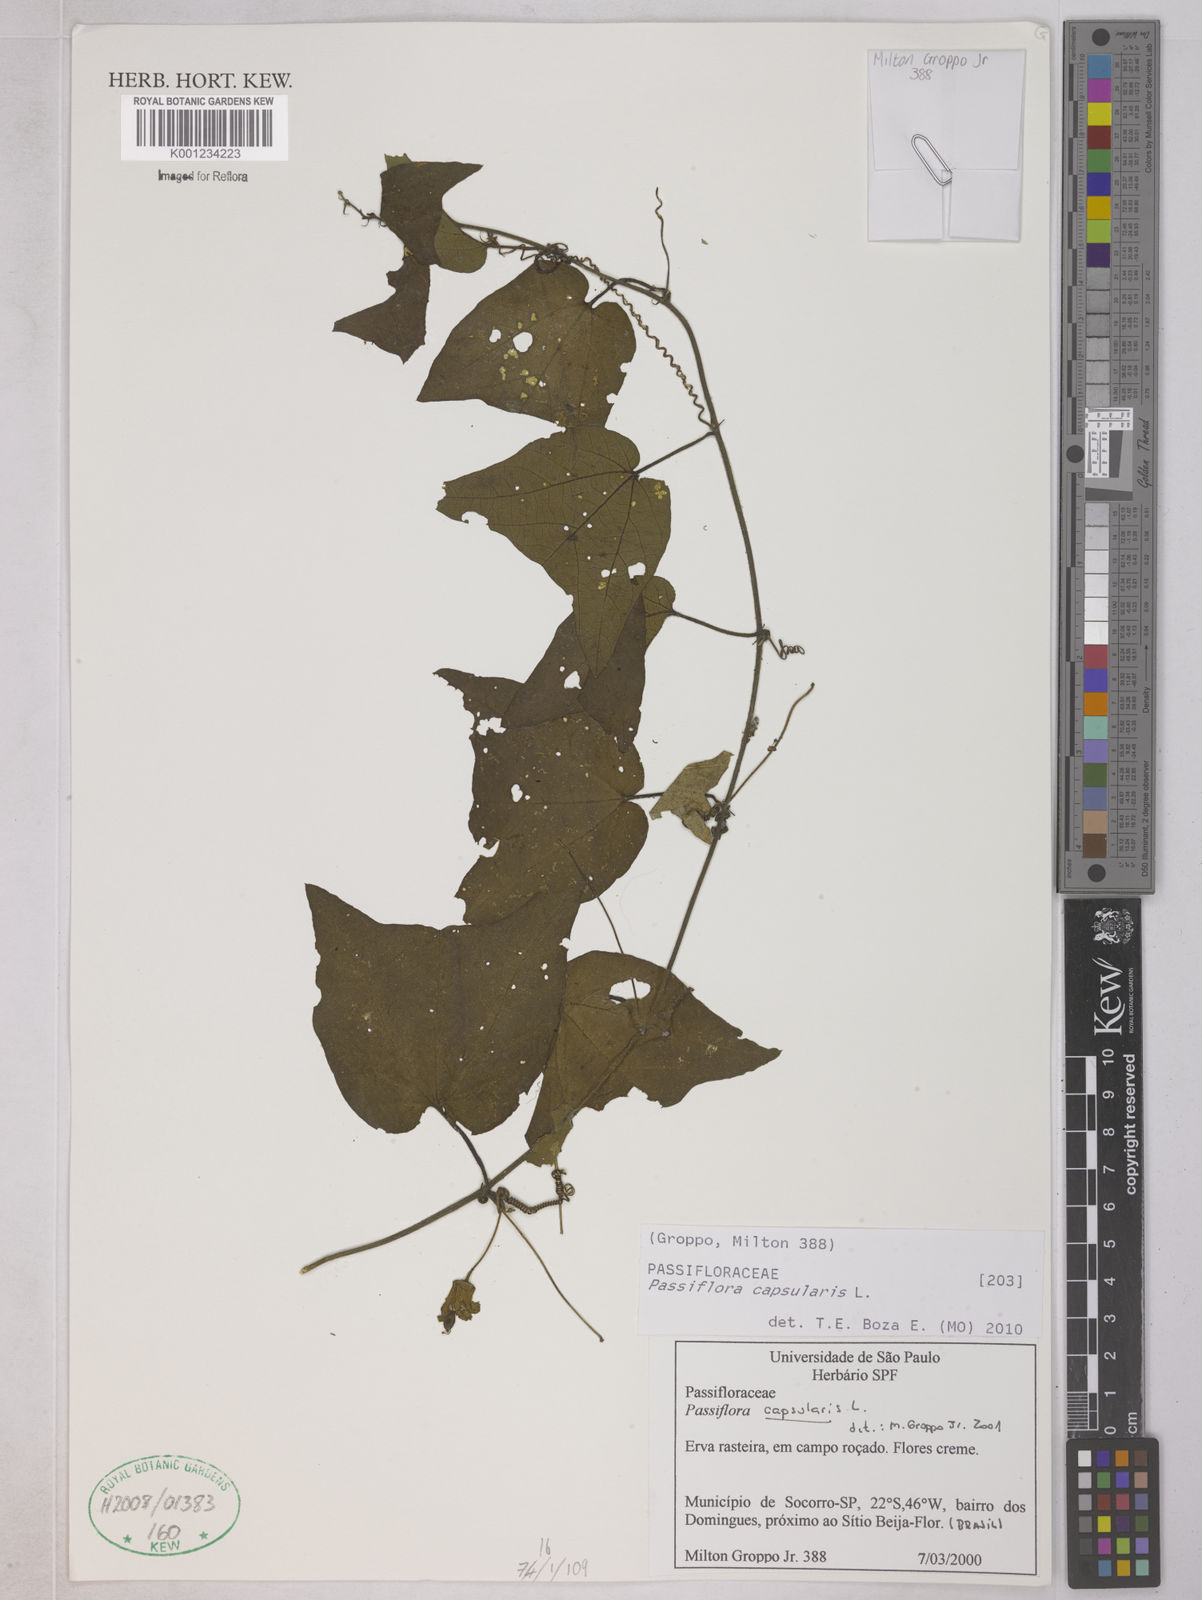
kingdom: Plantae
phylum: Tracheophyta
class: Magnoliopsida
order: Malpighiales
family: Passifloraceae
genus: Passiflora
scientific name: Passiflora capsularis
